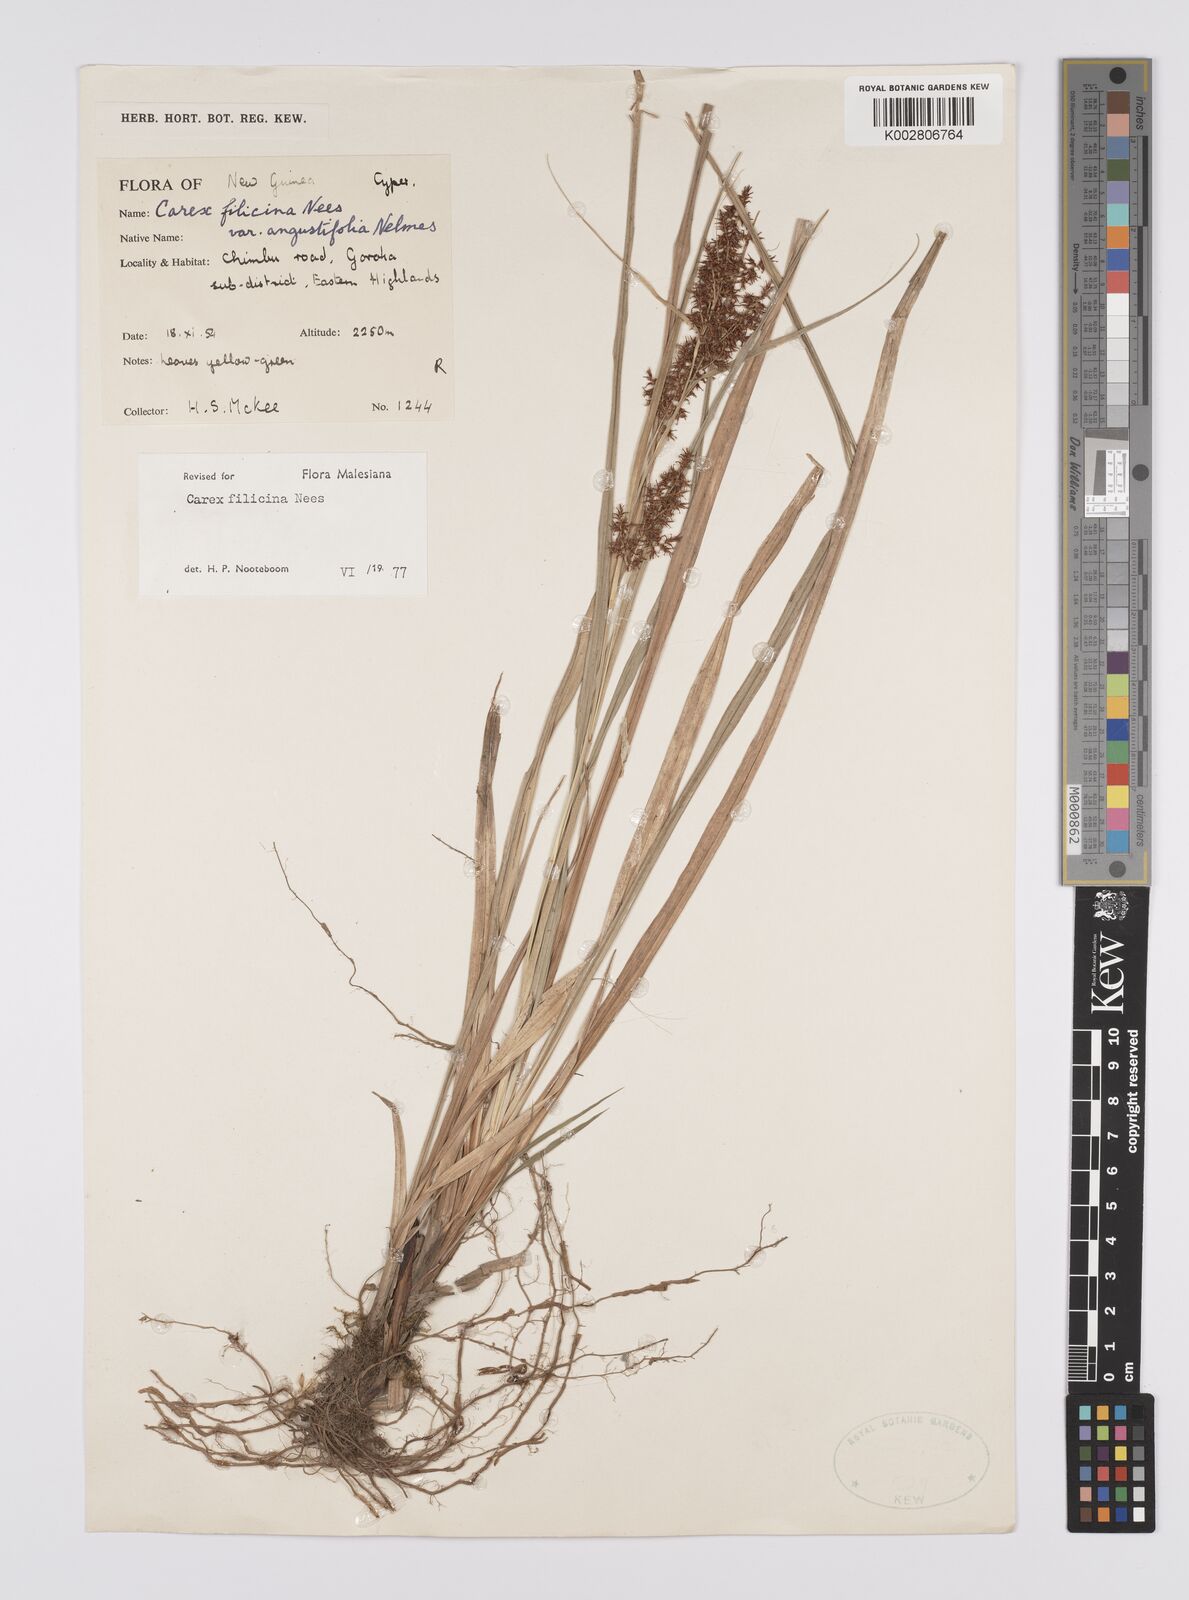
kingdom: Plantae
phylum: Tracheophyta
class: Liliopsida
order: Poales
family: Cyperaceae
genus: Carex
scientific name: Carex filicina
